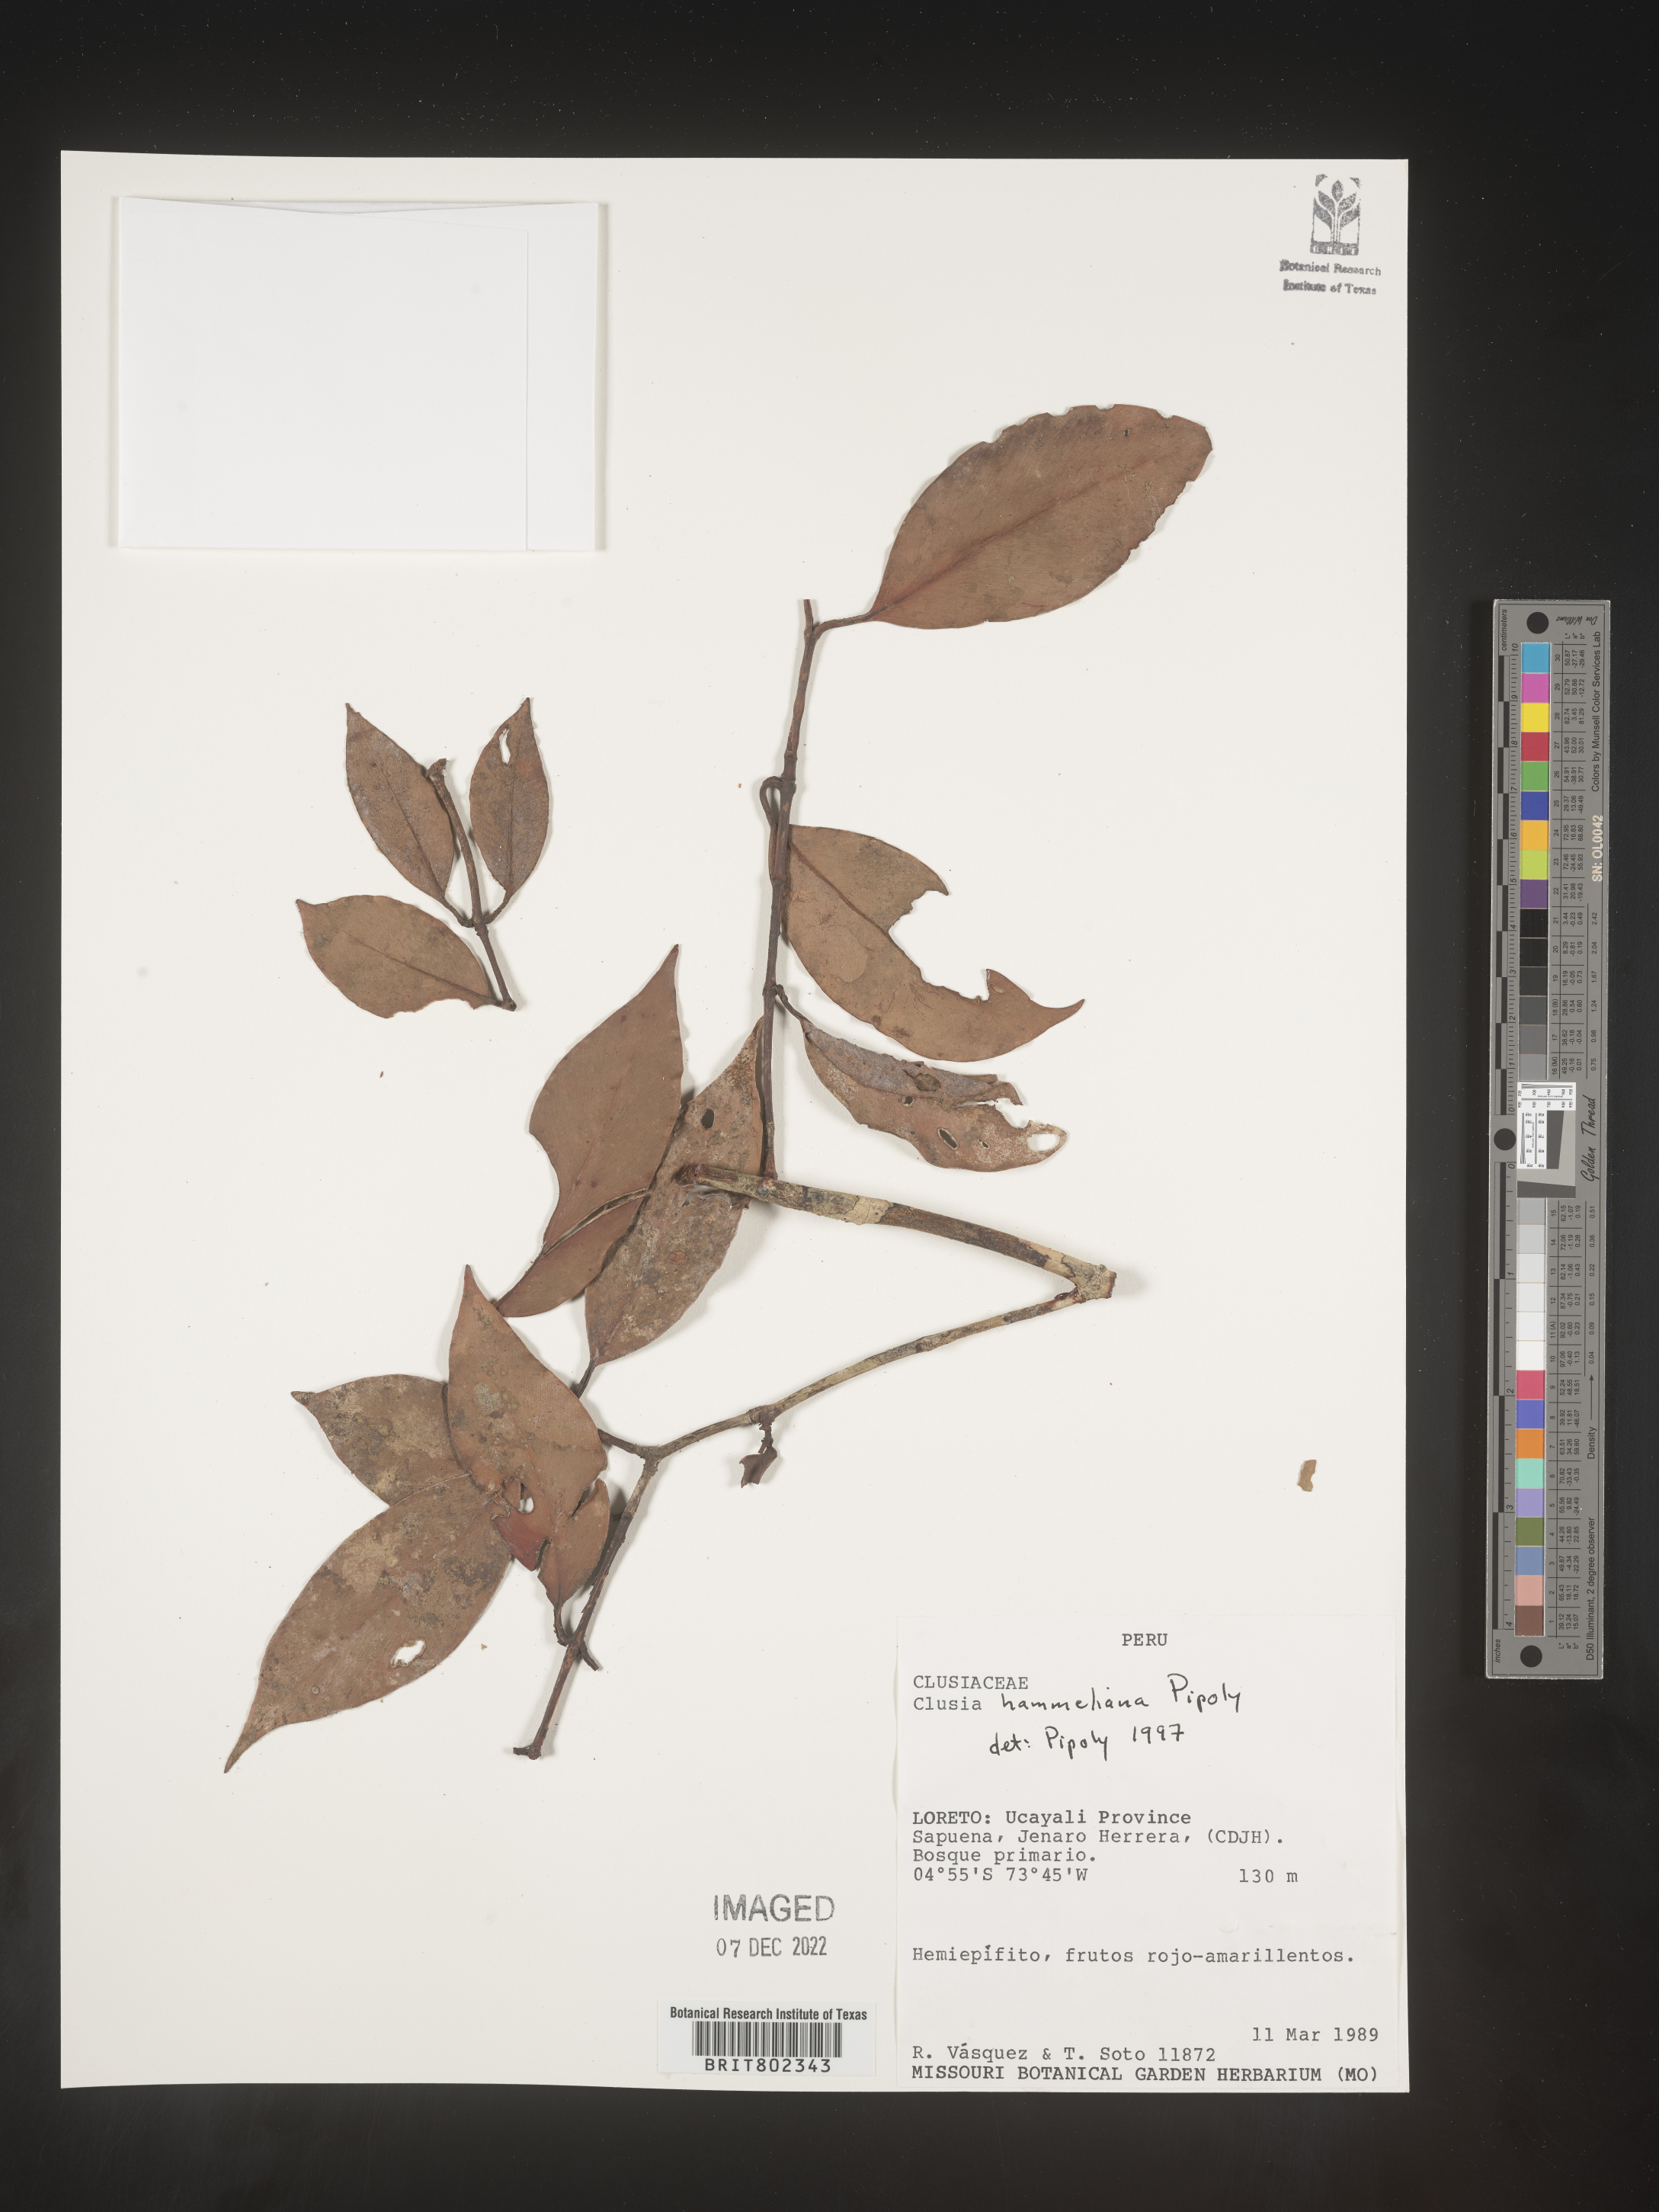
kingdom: Plantae
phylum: Tracheophyta
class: Magnoliopsida
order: Malpighiales
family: Clusiaceae
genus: Clusia
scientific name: Clusia hammeliana
